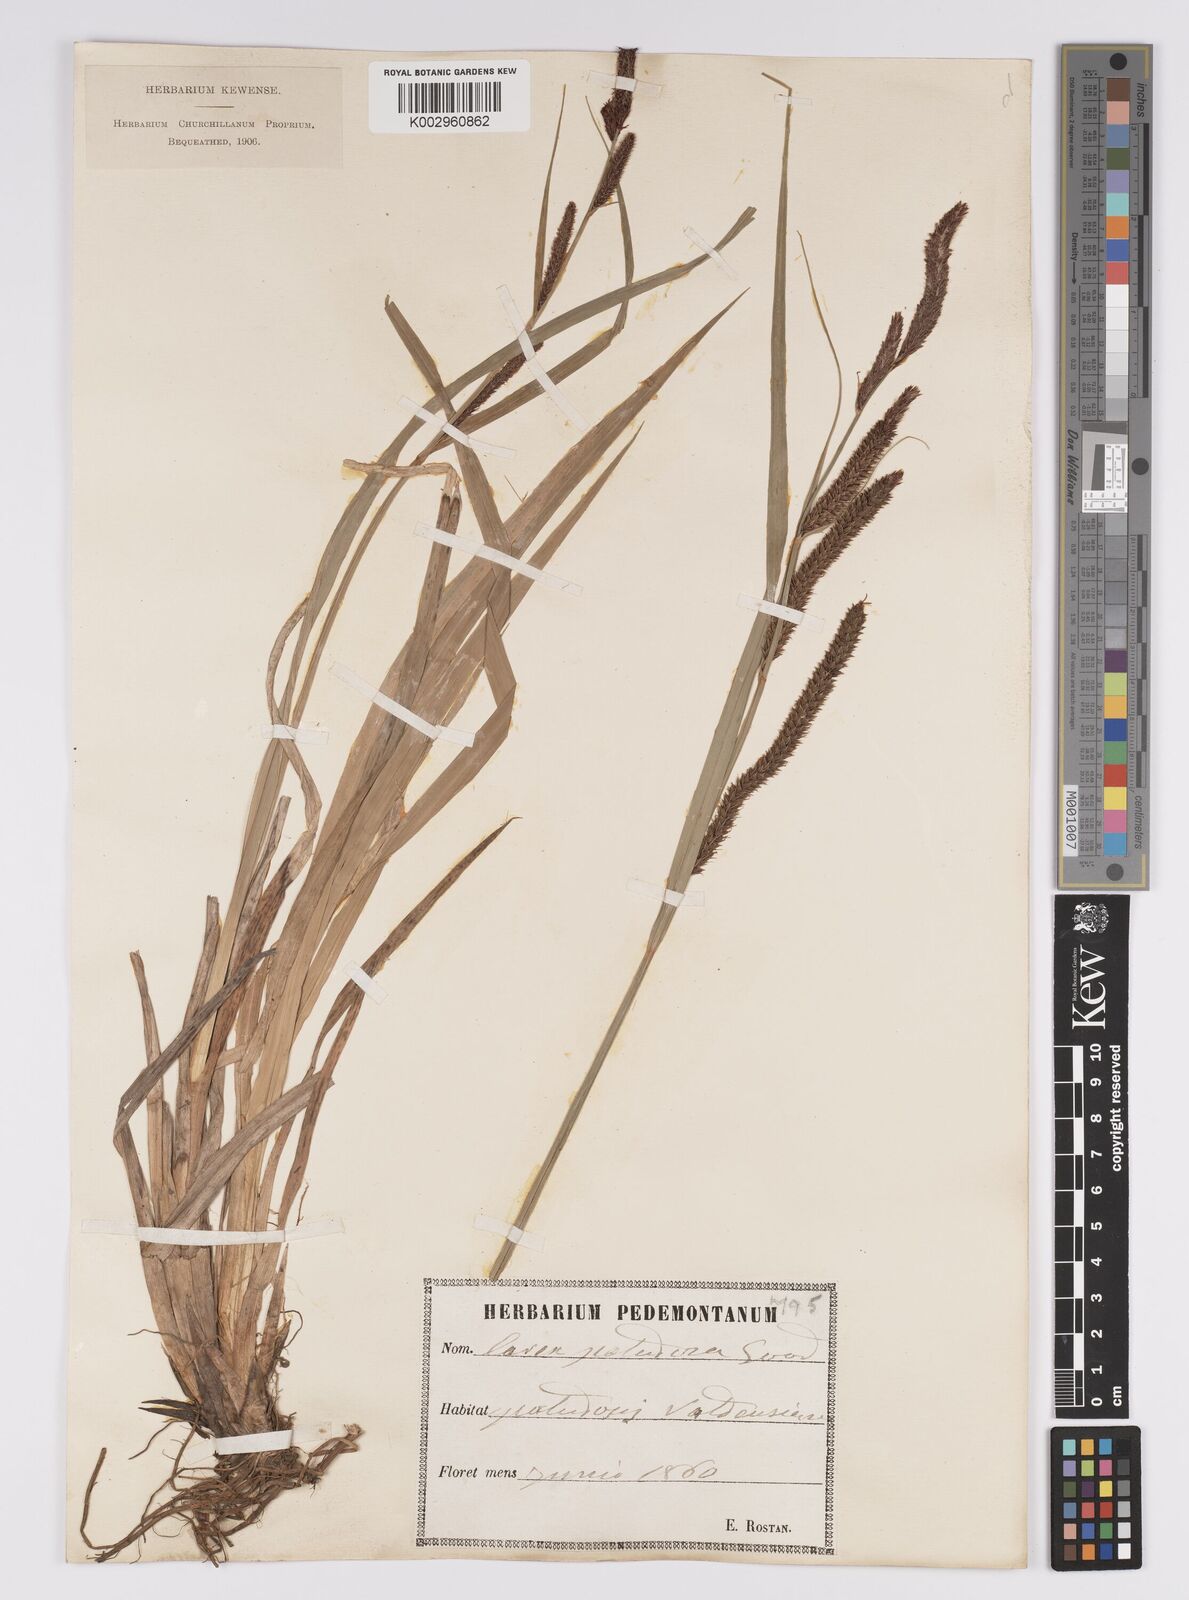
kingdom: Plantae
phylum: Tracheophyta
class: Liliopsida
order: Poales
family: Cyperaceae
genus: Carex
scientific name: Carex acutiformis
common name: Lesser pond-sedge
